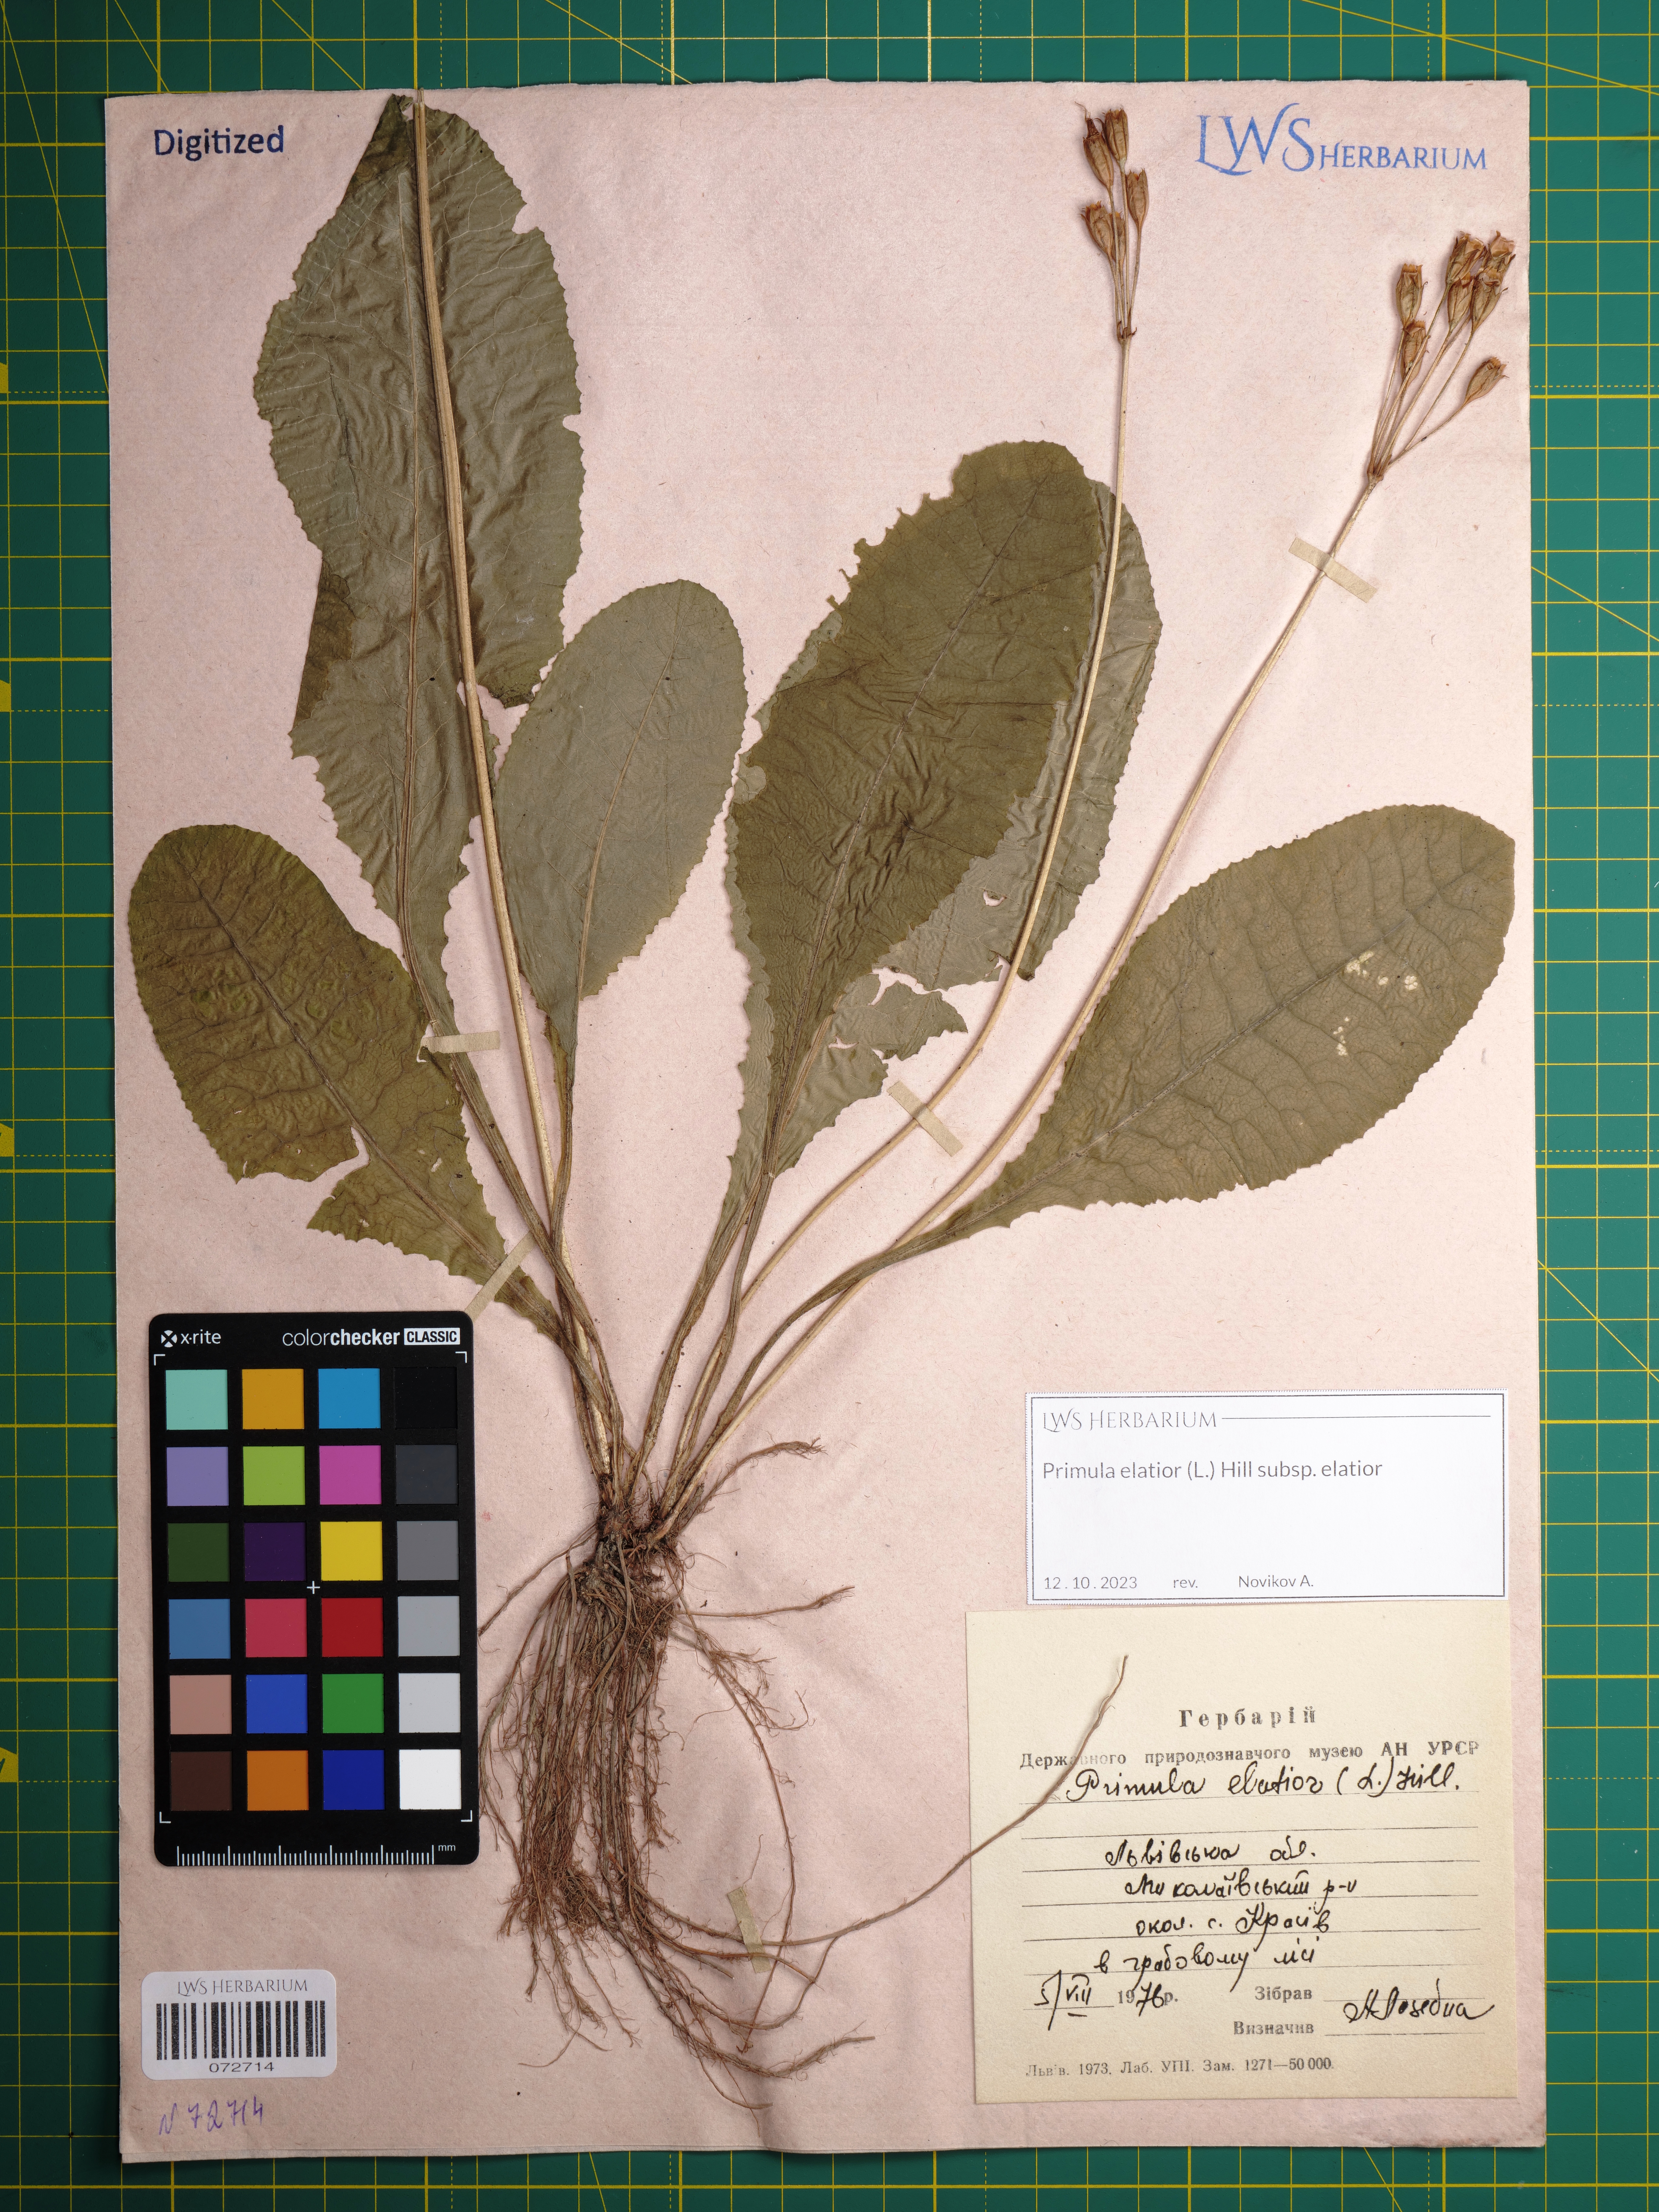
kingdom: Plantae
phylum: Tracheophyta
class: Magnoliopsida
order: Ericales
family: Primulaceae
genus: Primula
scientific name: Primula elatior
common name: Oxlip
